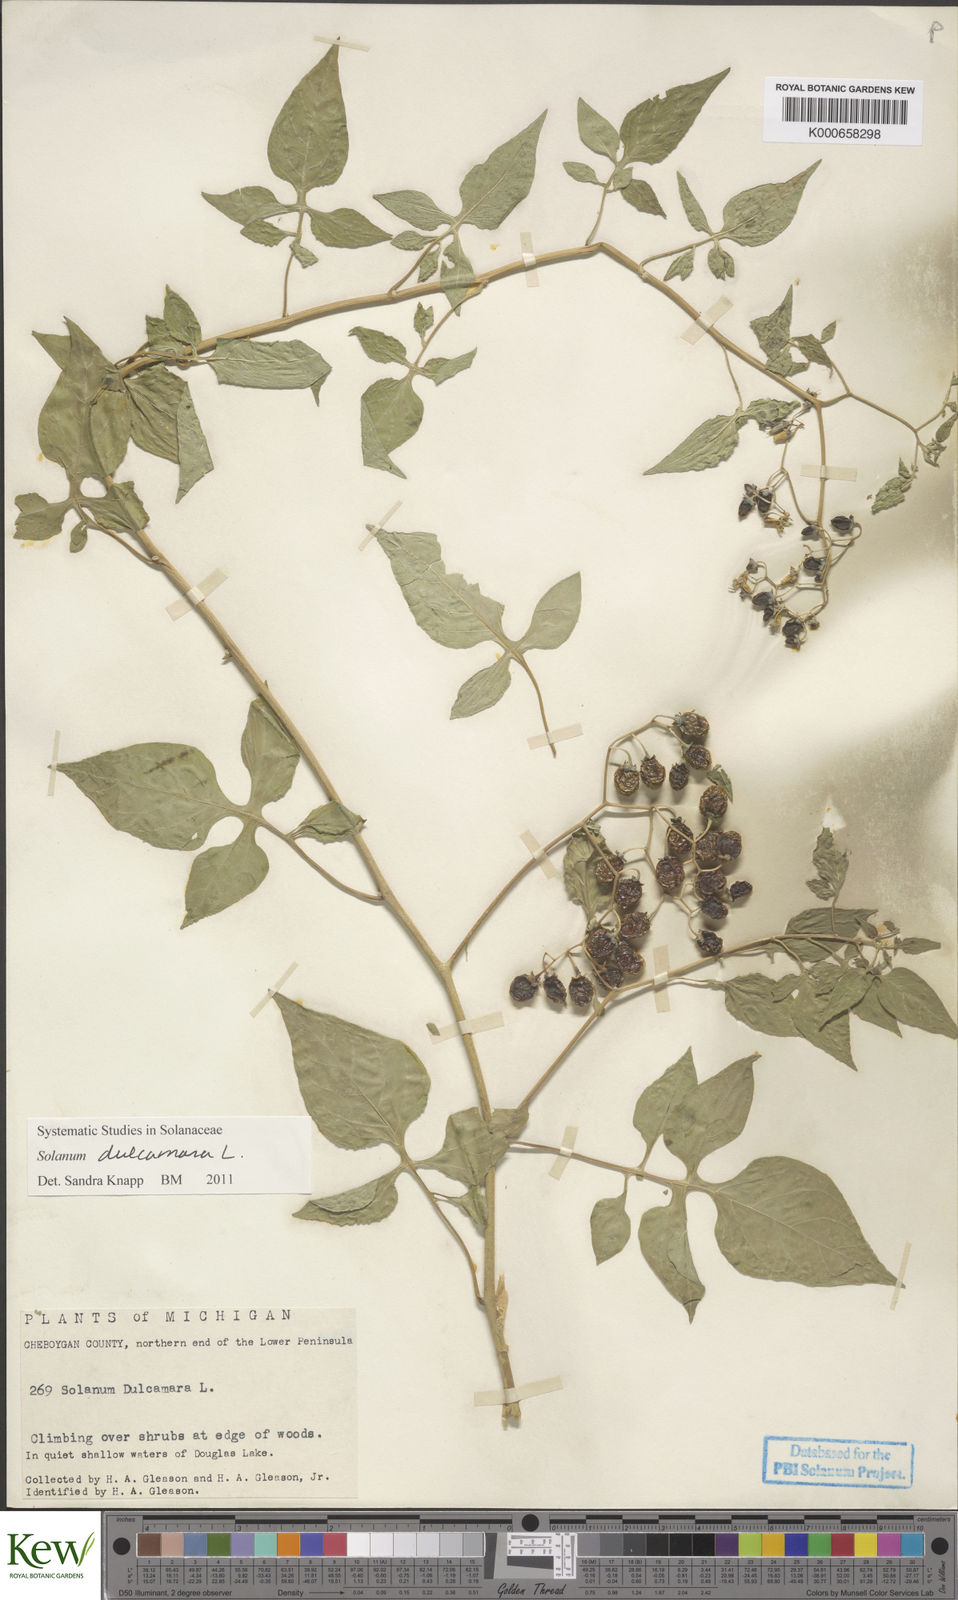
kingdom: Plantae
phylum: Tracheophyta
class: Magnoliopsida
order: Solanales
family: Solanaceae
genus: Solanum
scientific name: Solanum dulcamara
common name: Climbing nightshade
